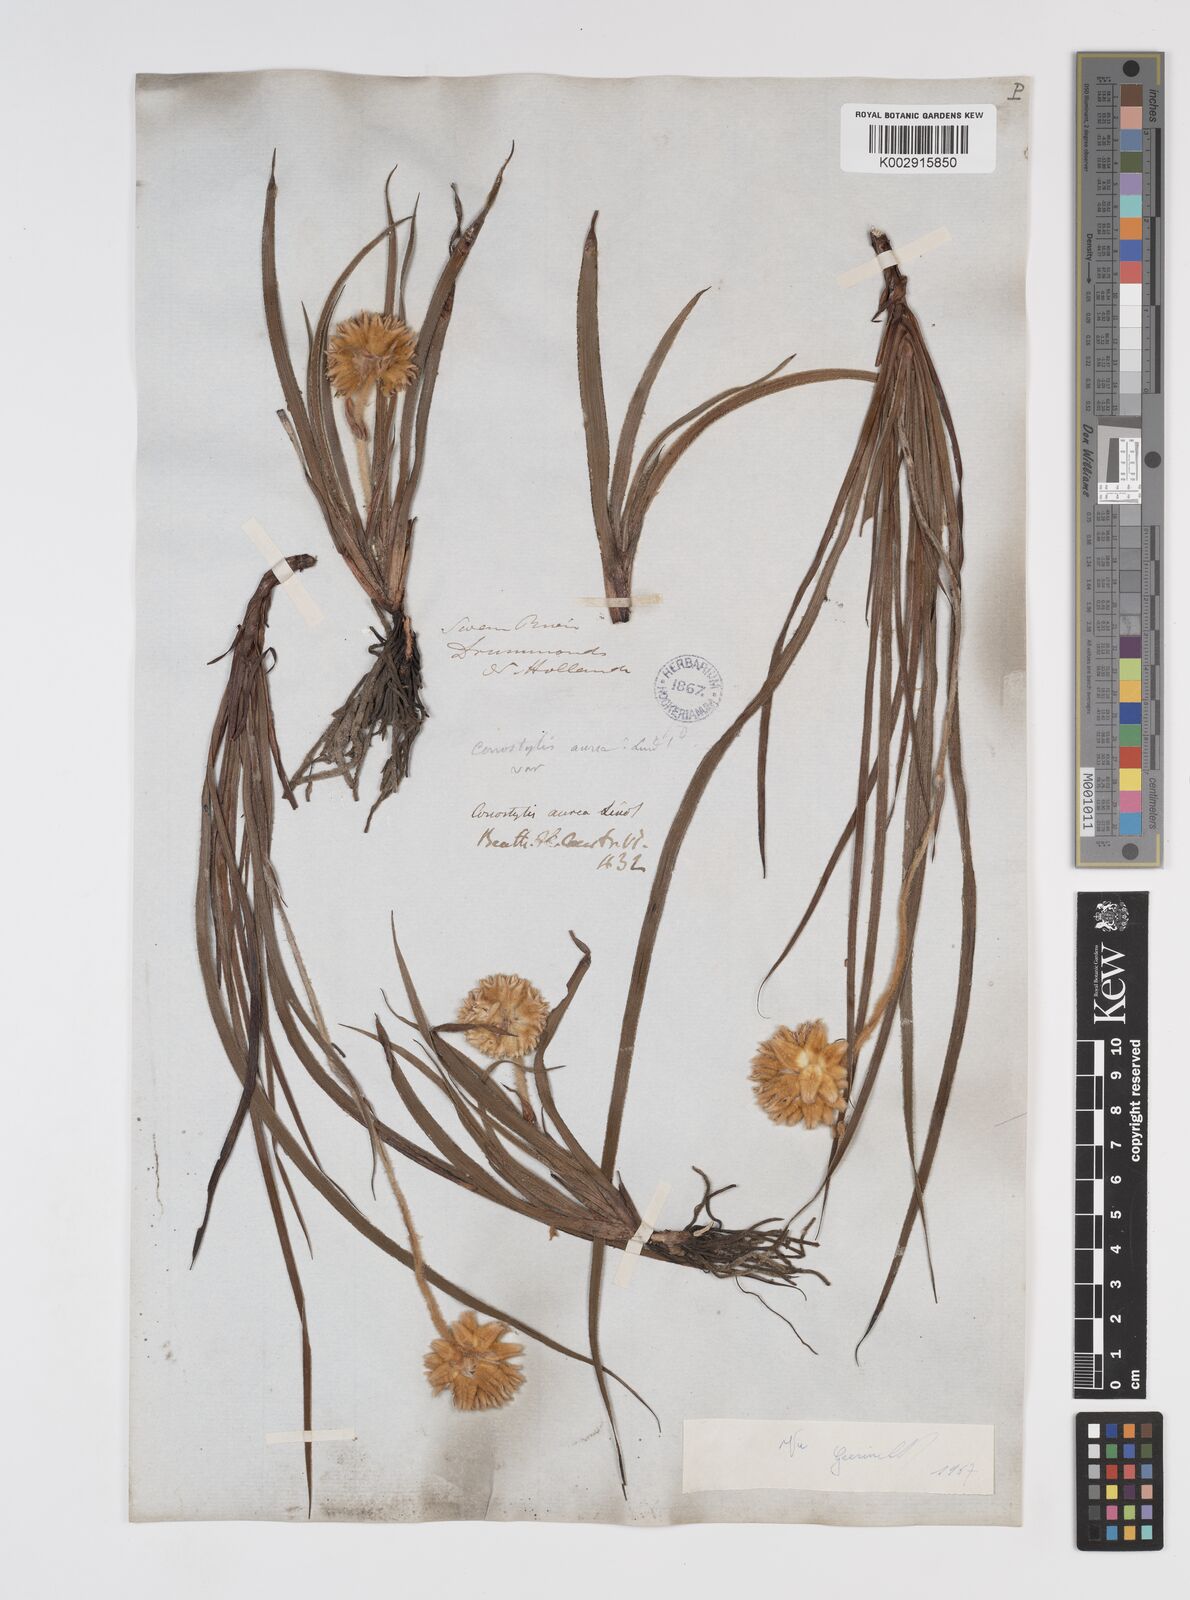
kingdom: Plantae
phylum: Tracheophyta
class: Liliopsida
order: Commelinales
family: Haemodoraceae
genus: Conostylis
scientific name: Conostylis aurea
